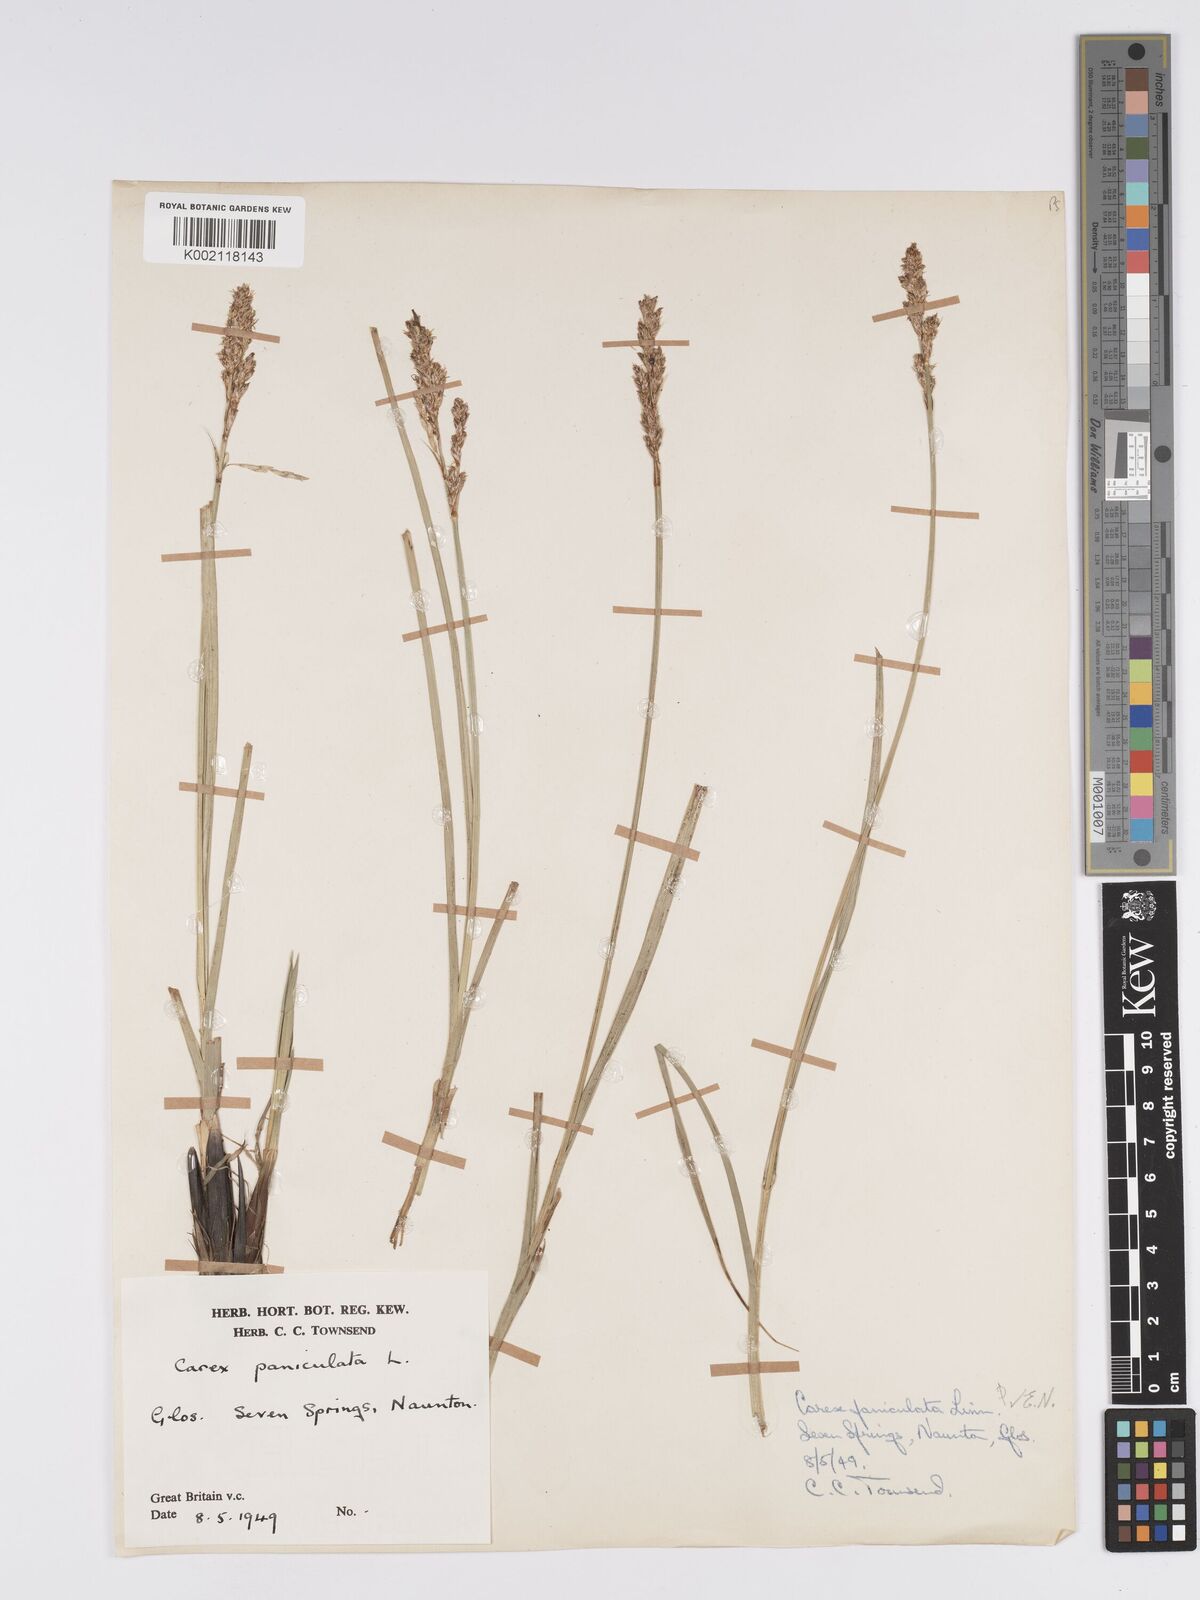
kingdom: Plantae
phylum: Tracheophyta
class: Liliopsida
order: Poales
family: Cyperaceae
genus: Carex
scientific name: Carex paniculata
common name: Greater tussock-sedge
